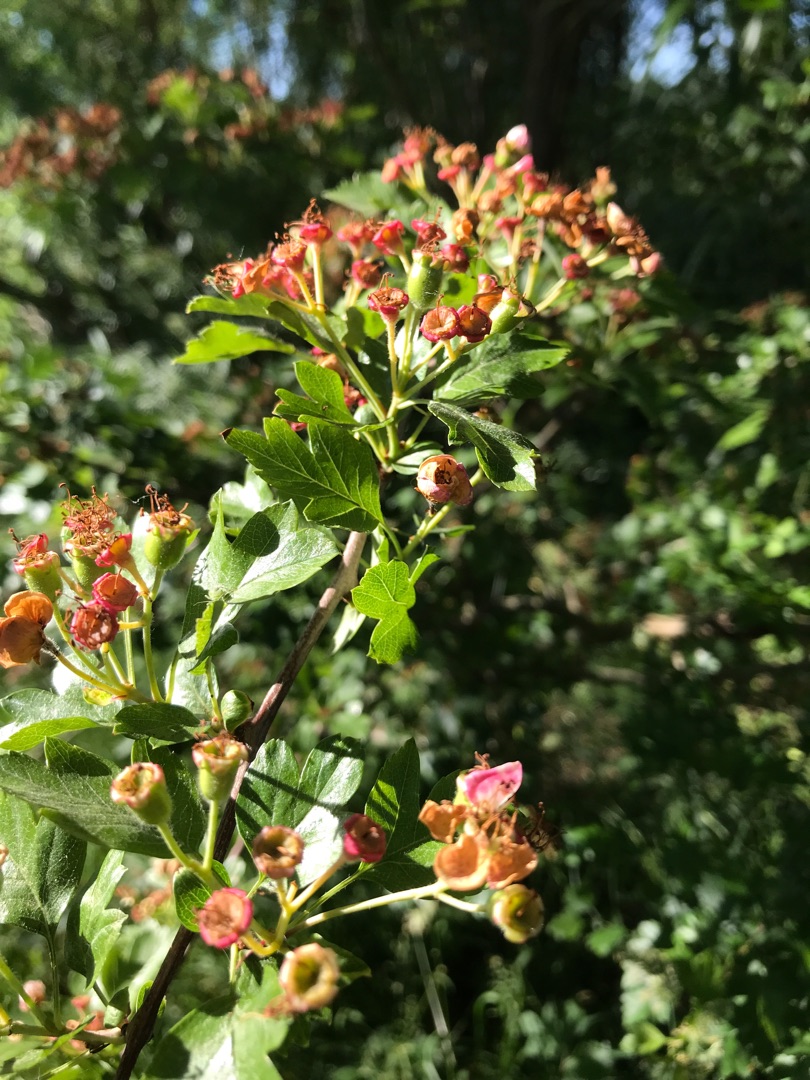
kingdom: Plantae
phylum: Tracheophyta
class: Magnoliopsida
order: Rosales
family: Rosaceae
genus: Crataegus
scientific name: Crataegus monogyna
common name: Engriflet hvidtjørn
